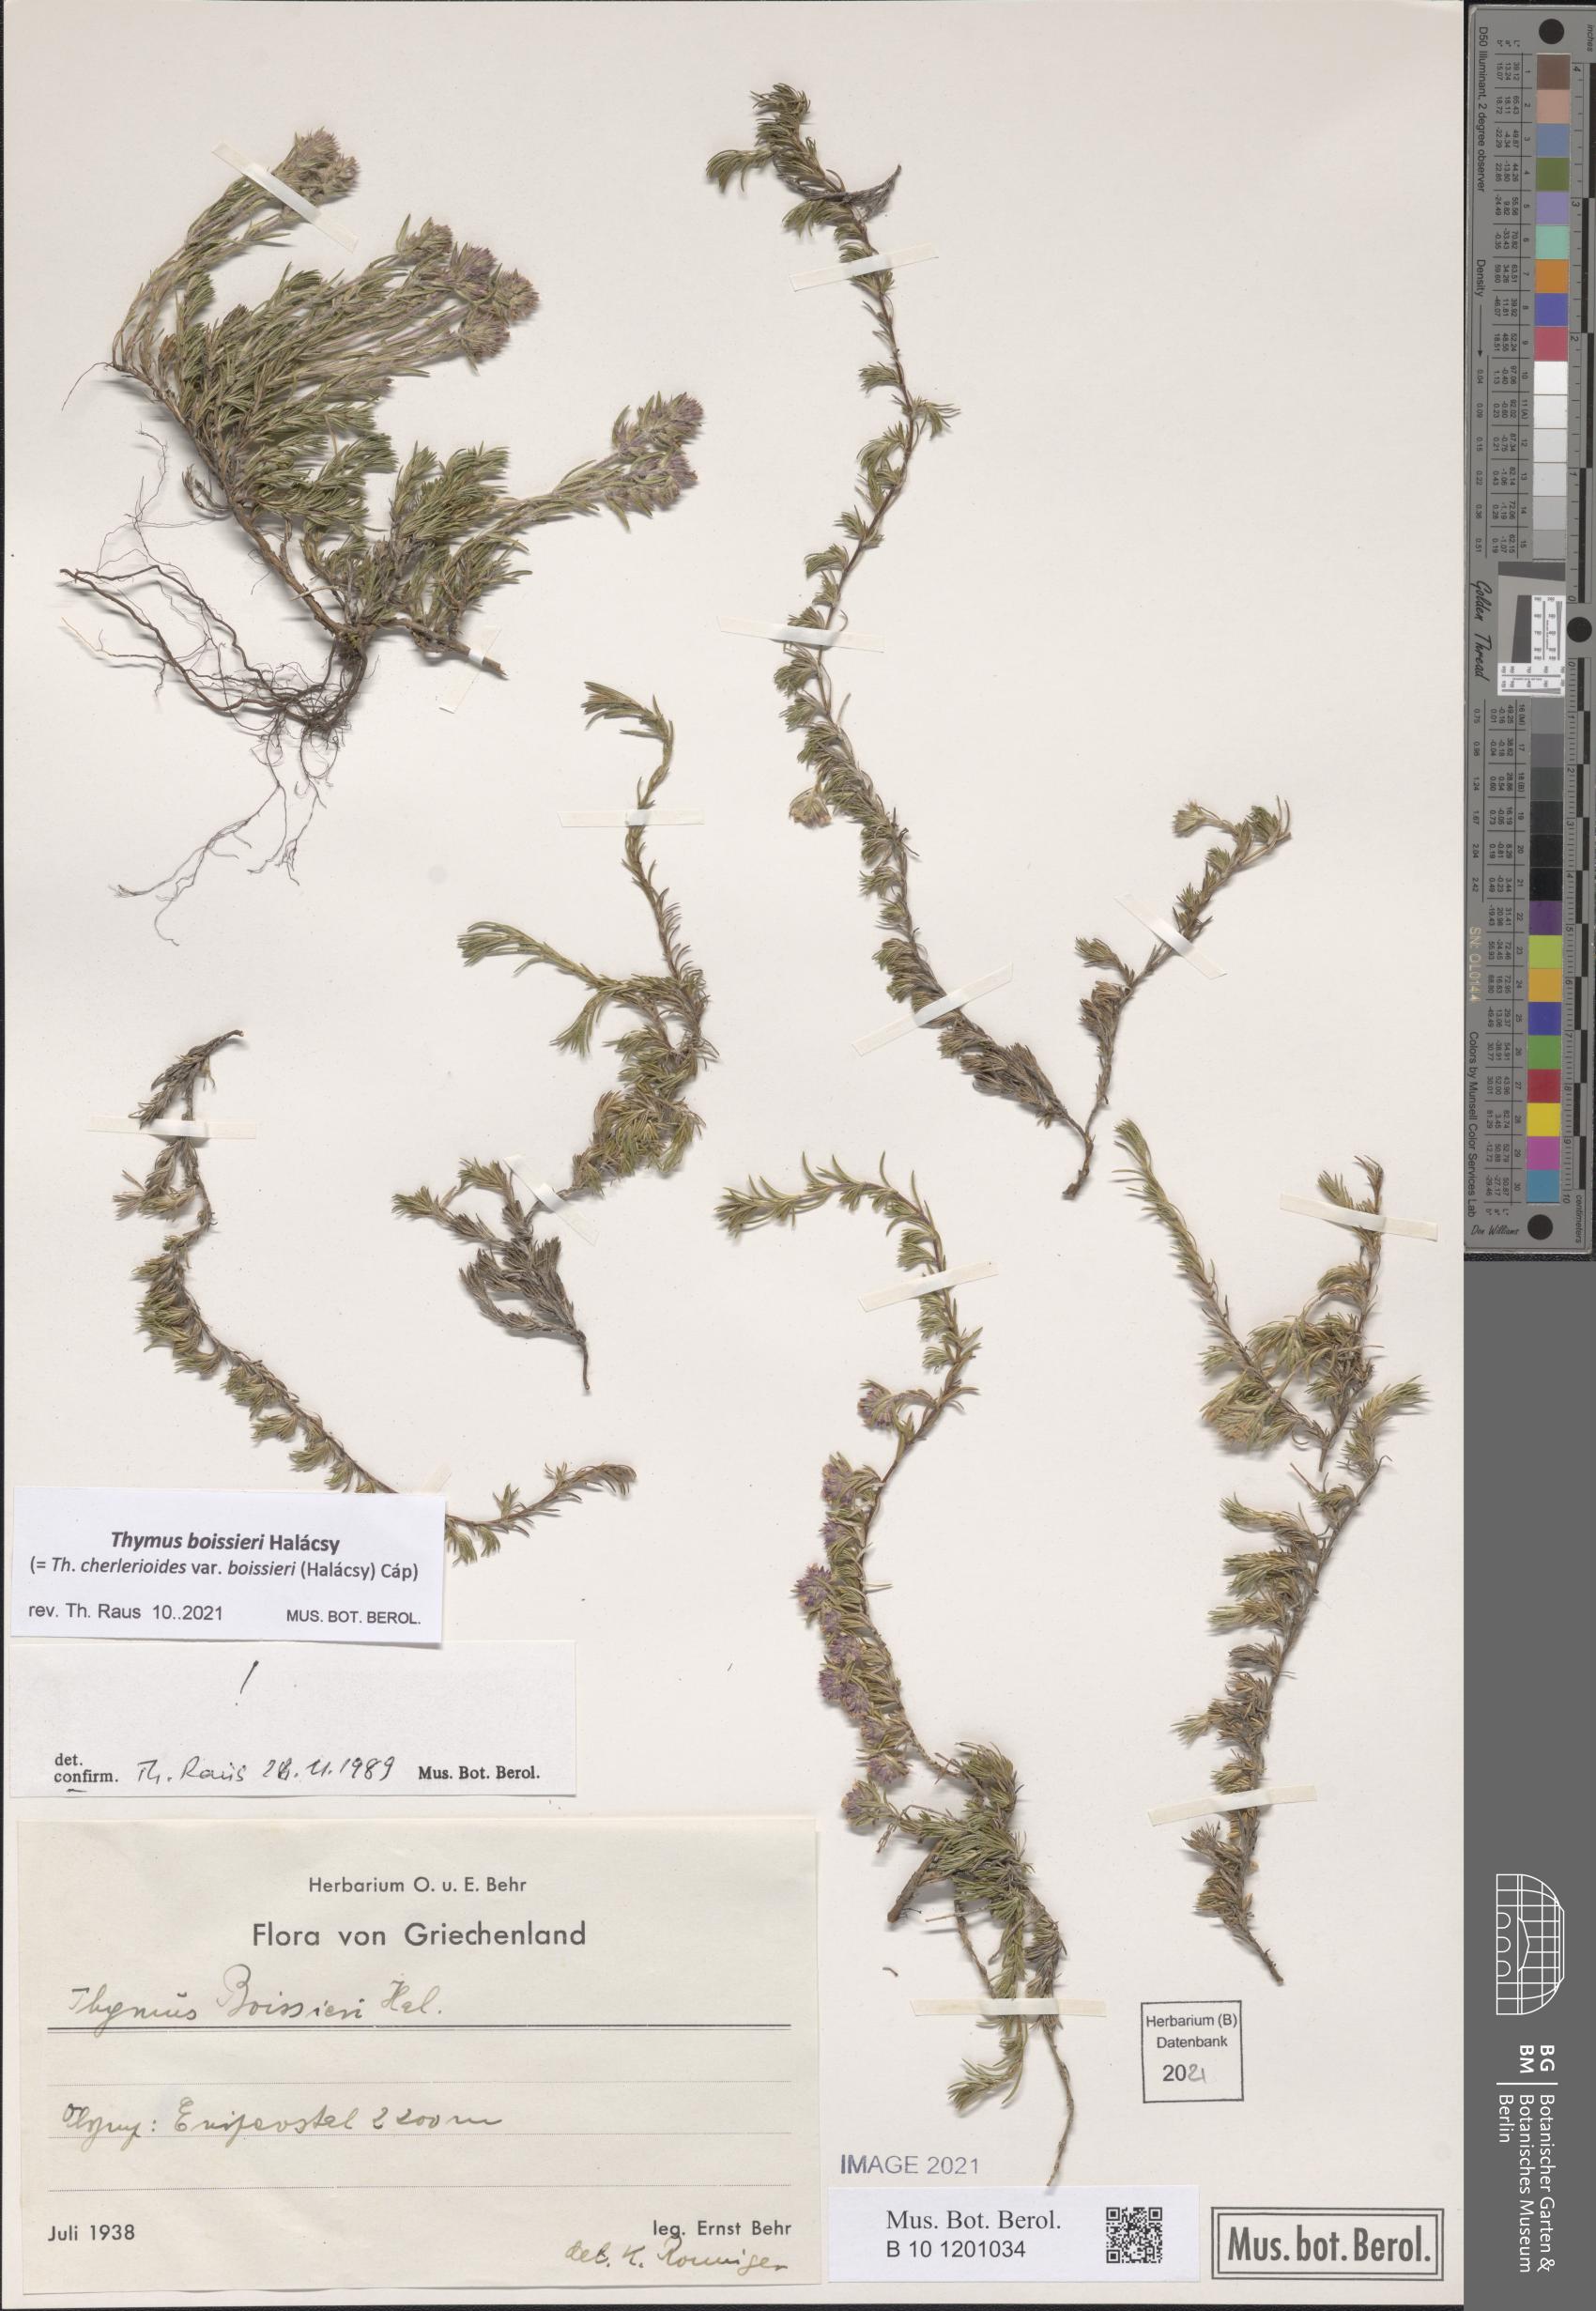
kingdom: Plantae
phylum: Tracheophyta
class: Magnoliopsida
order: Lamiales
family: Lamiaceae
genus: Thymus
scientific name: Thymus boissieri
